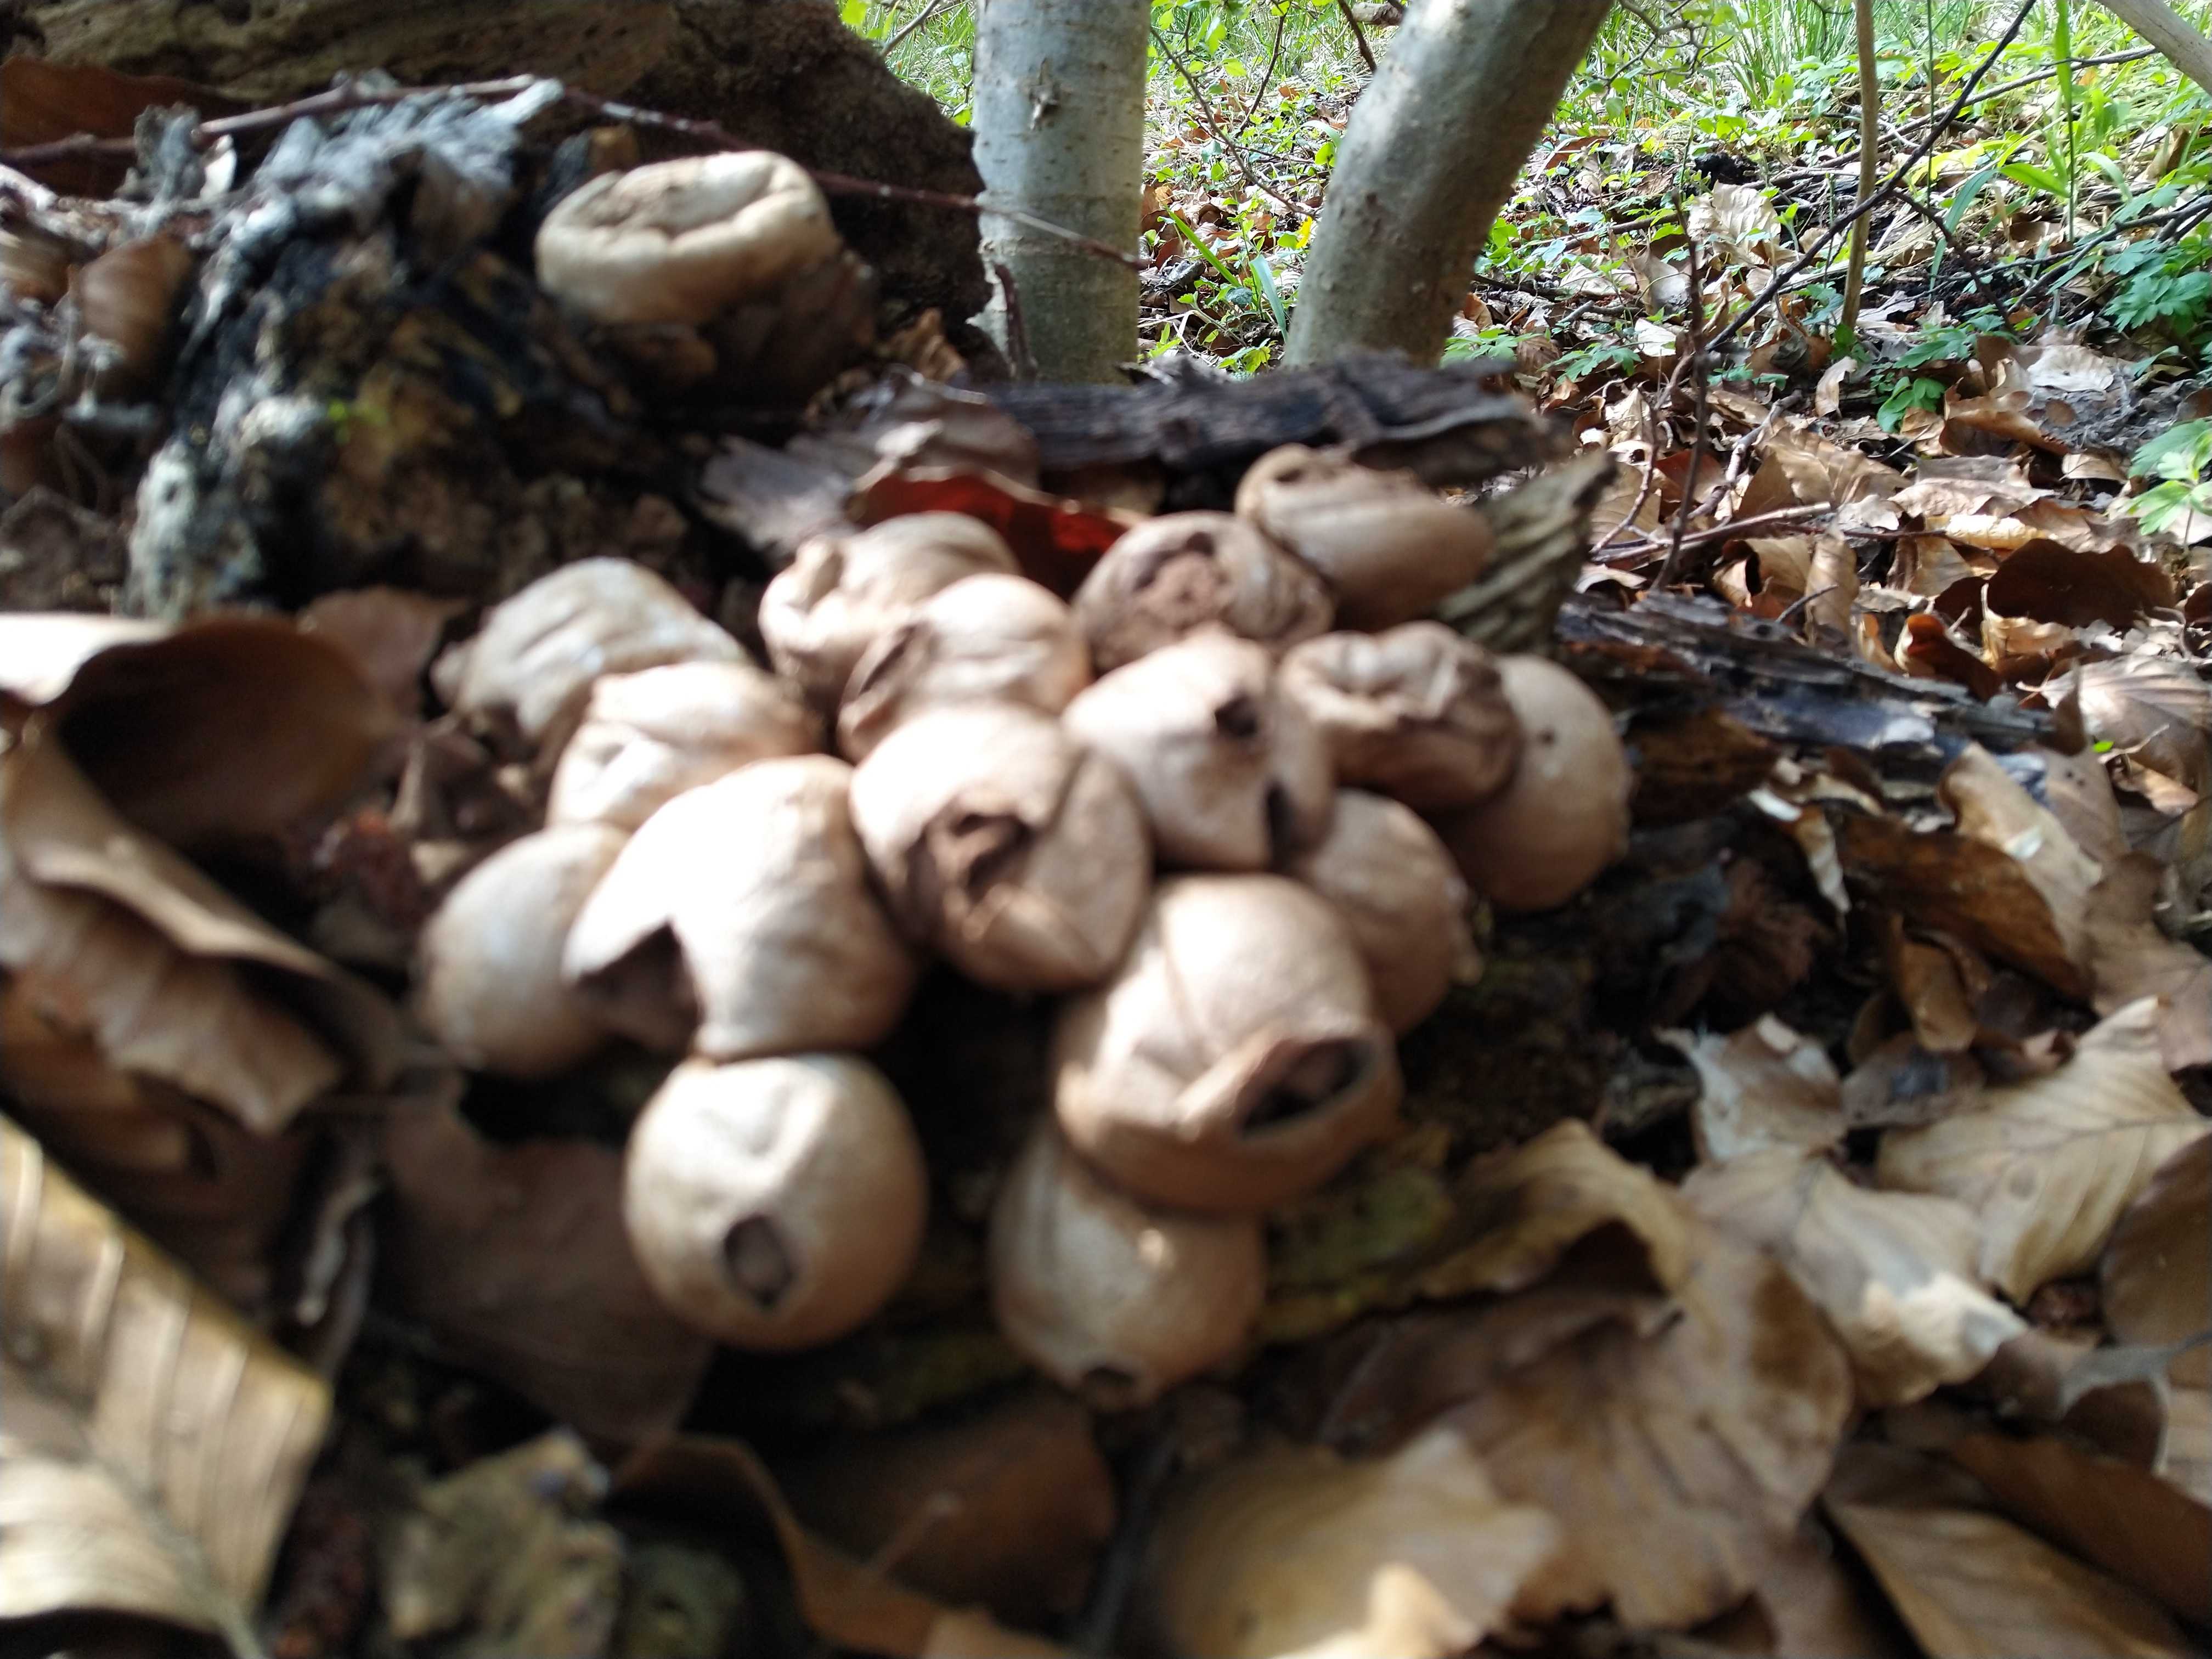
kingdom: Fungi
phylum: Basidiomycota
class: Agaricomycetes
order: Agaricales
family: Lycoperdaceae
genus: Apioperdon
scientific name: Apioperdon pyriforme
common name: pære-støvbold
